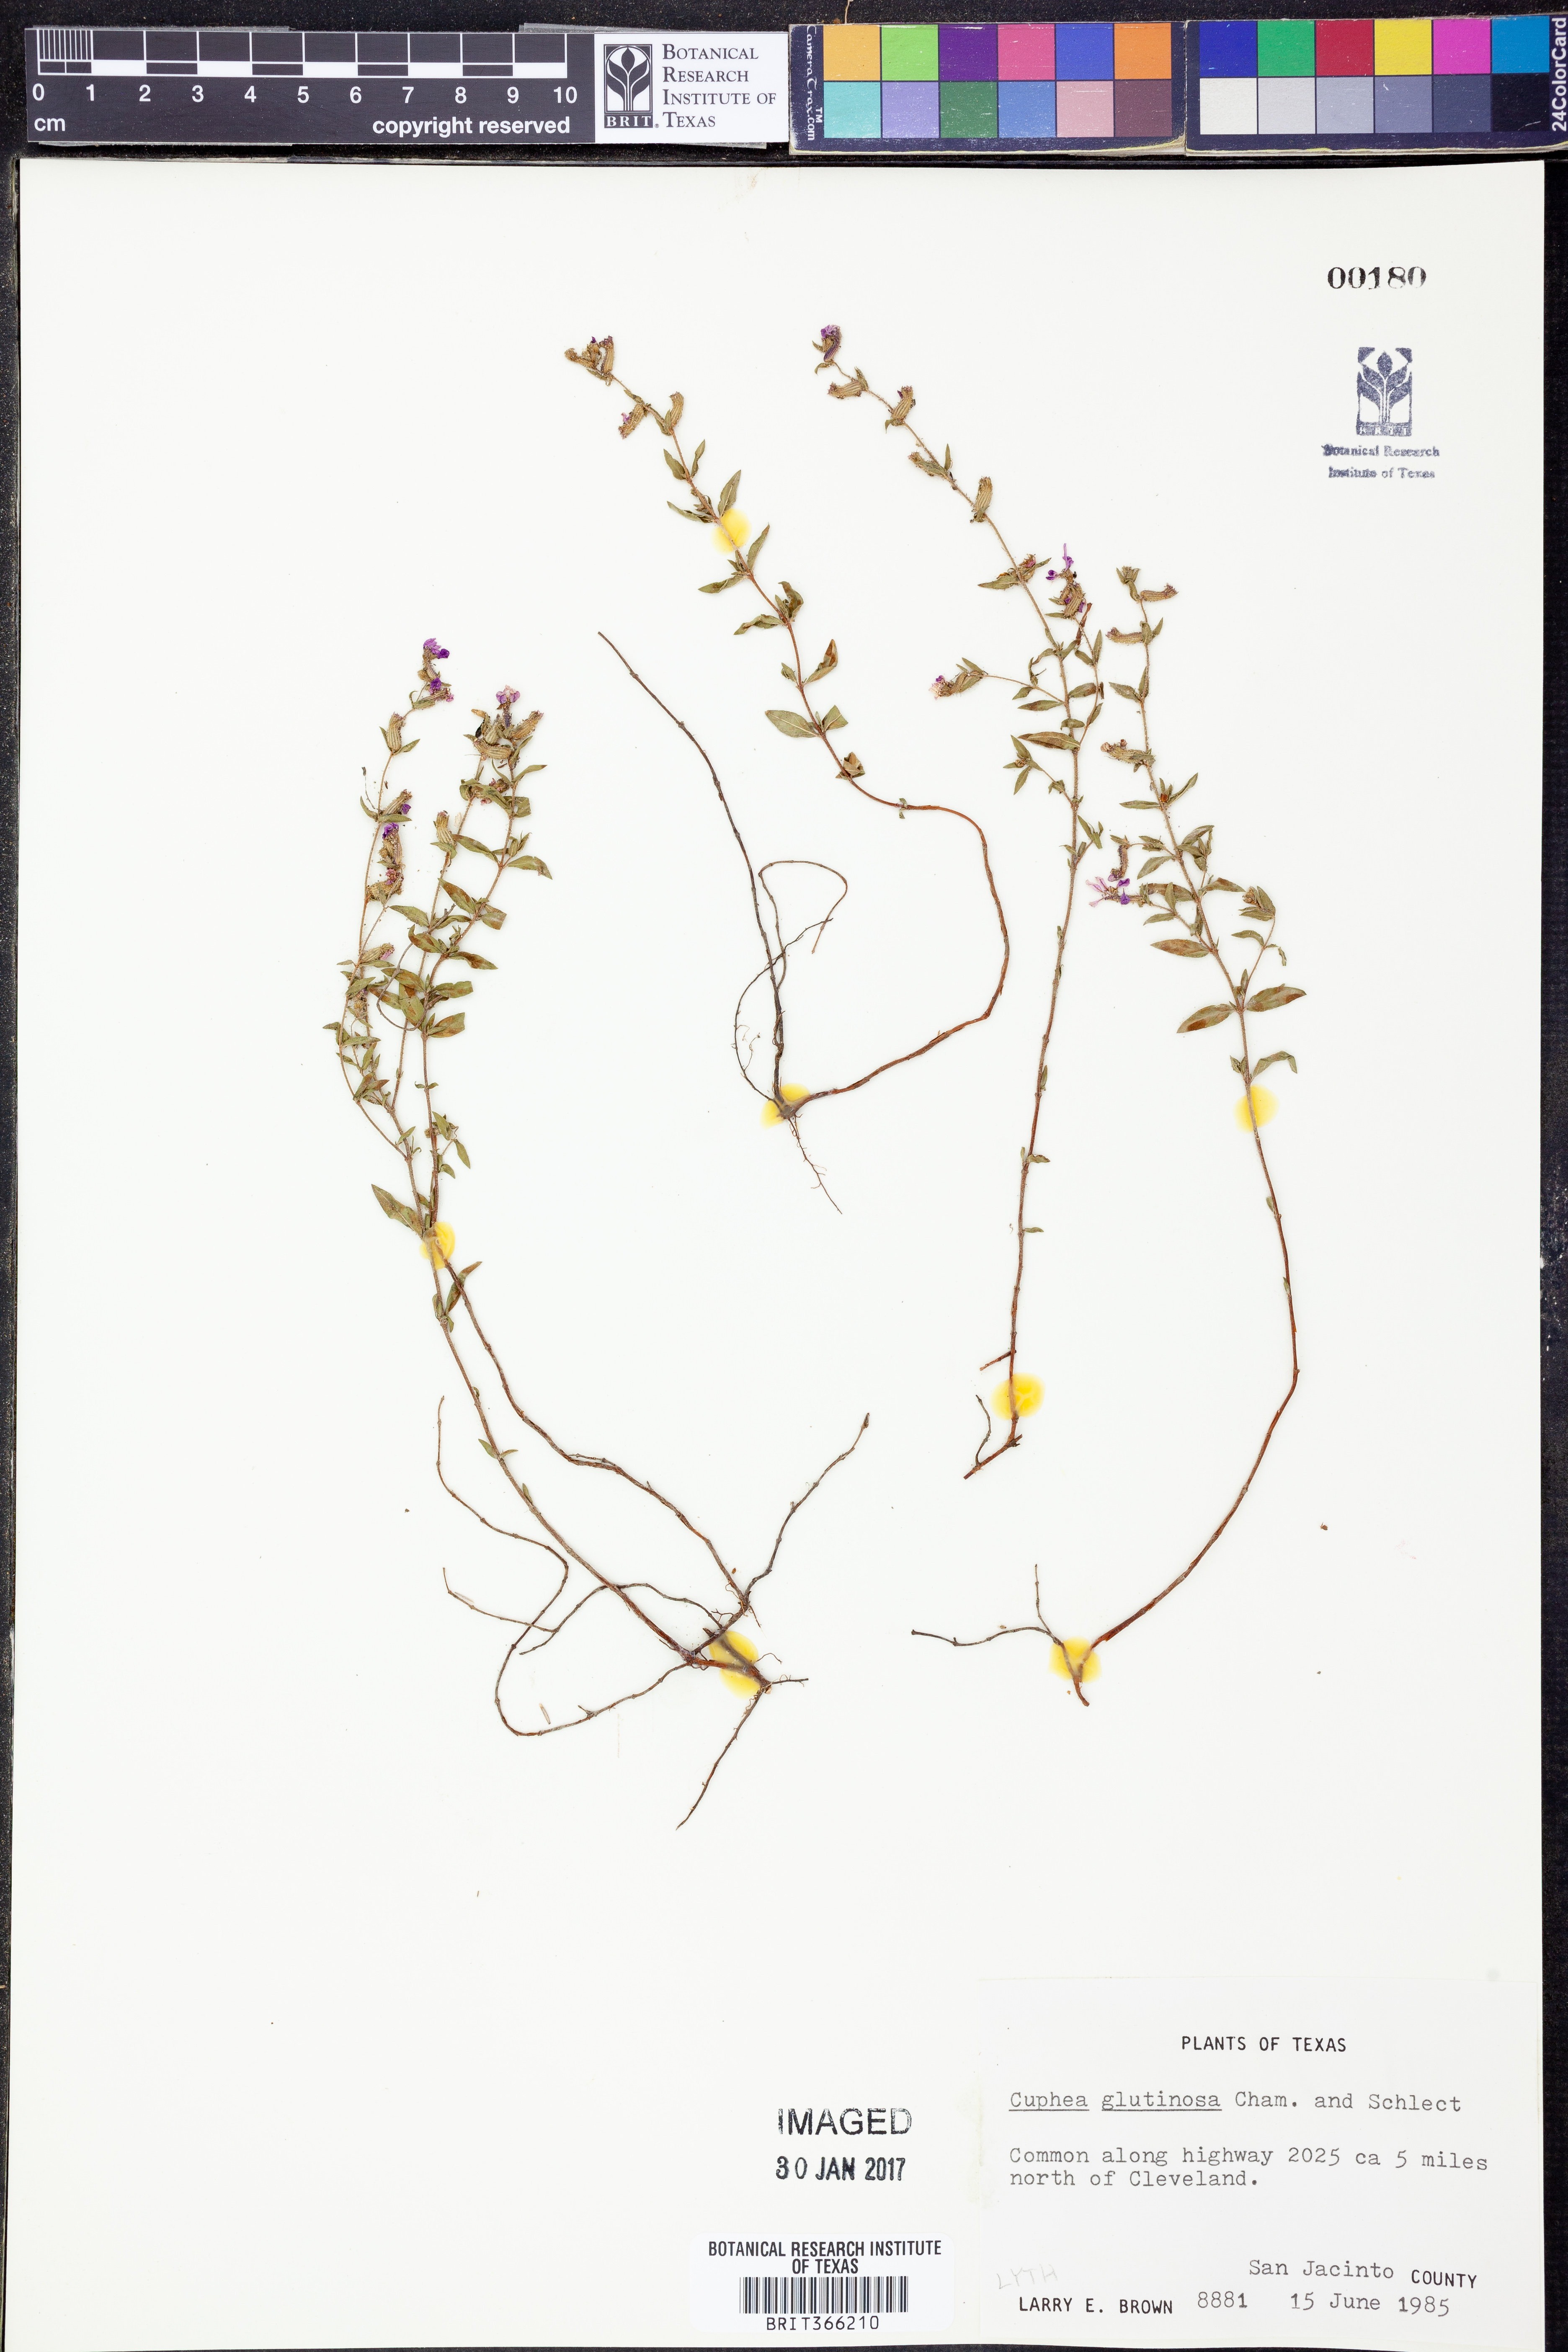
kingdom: Plantae
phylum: Tracheophyta
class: Magnoliopsida
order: Myrtales
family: Lythraceae
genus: Cuphea
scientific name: Cuphea glutinosa
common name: Sticky waxweed
